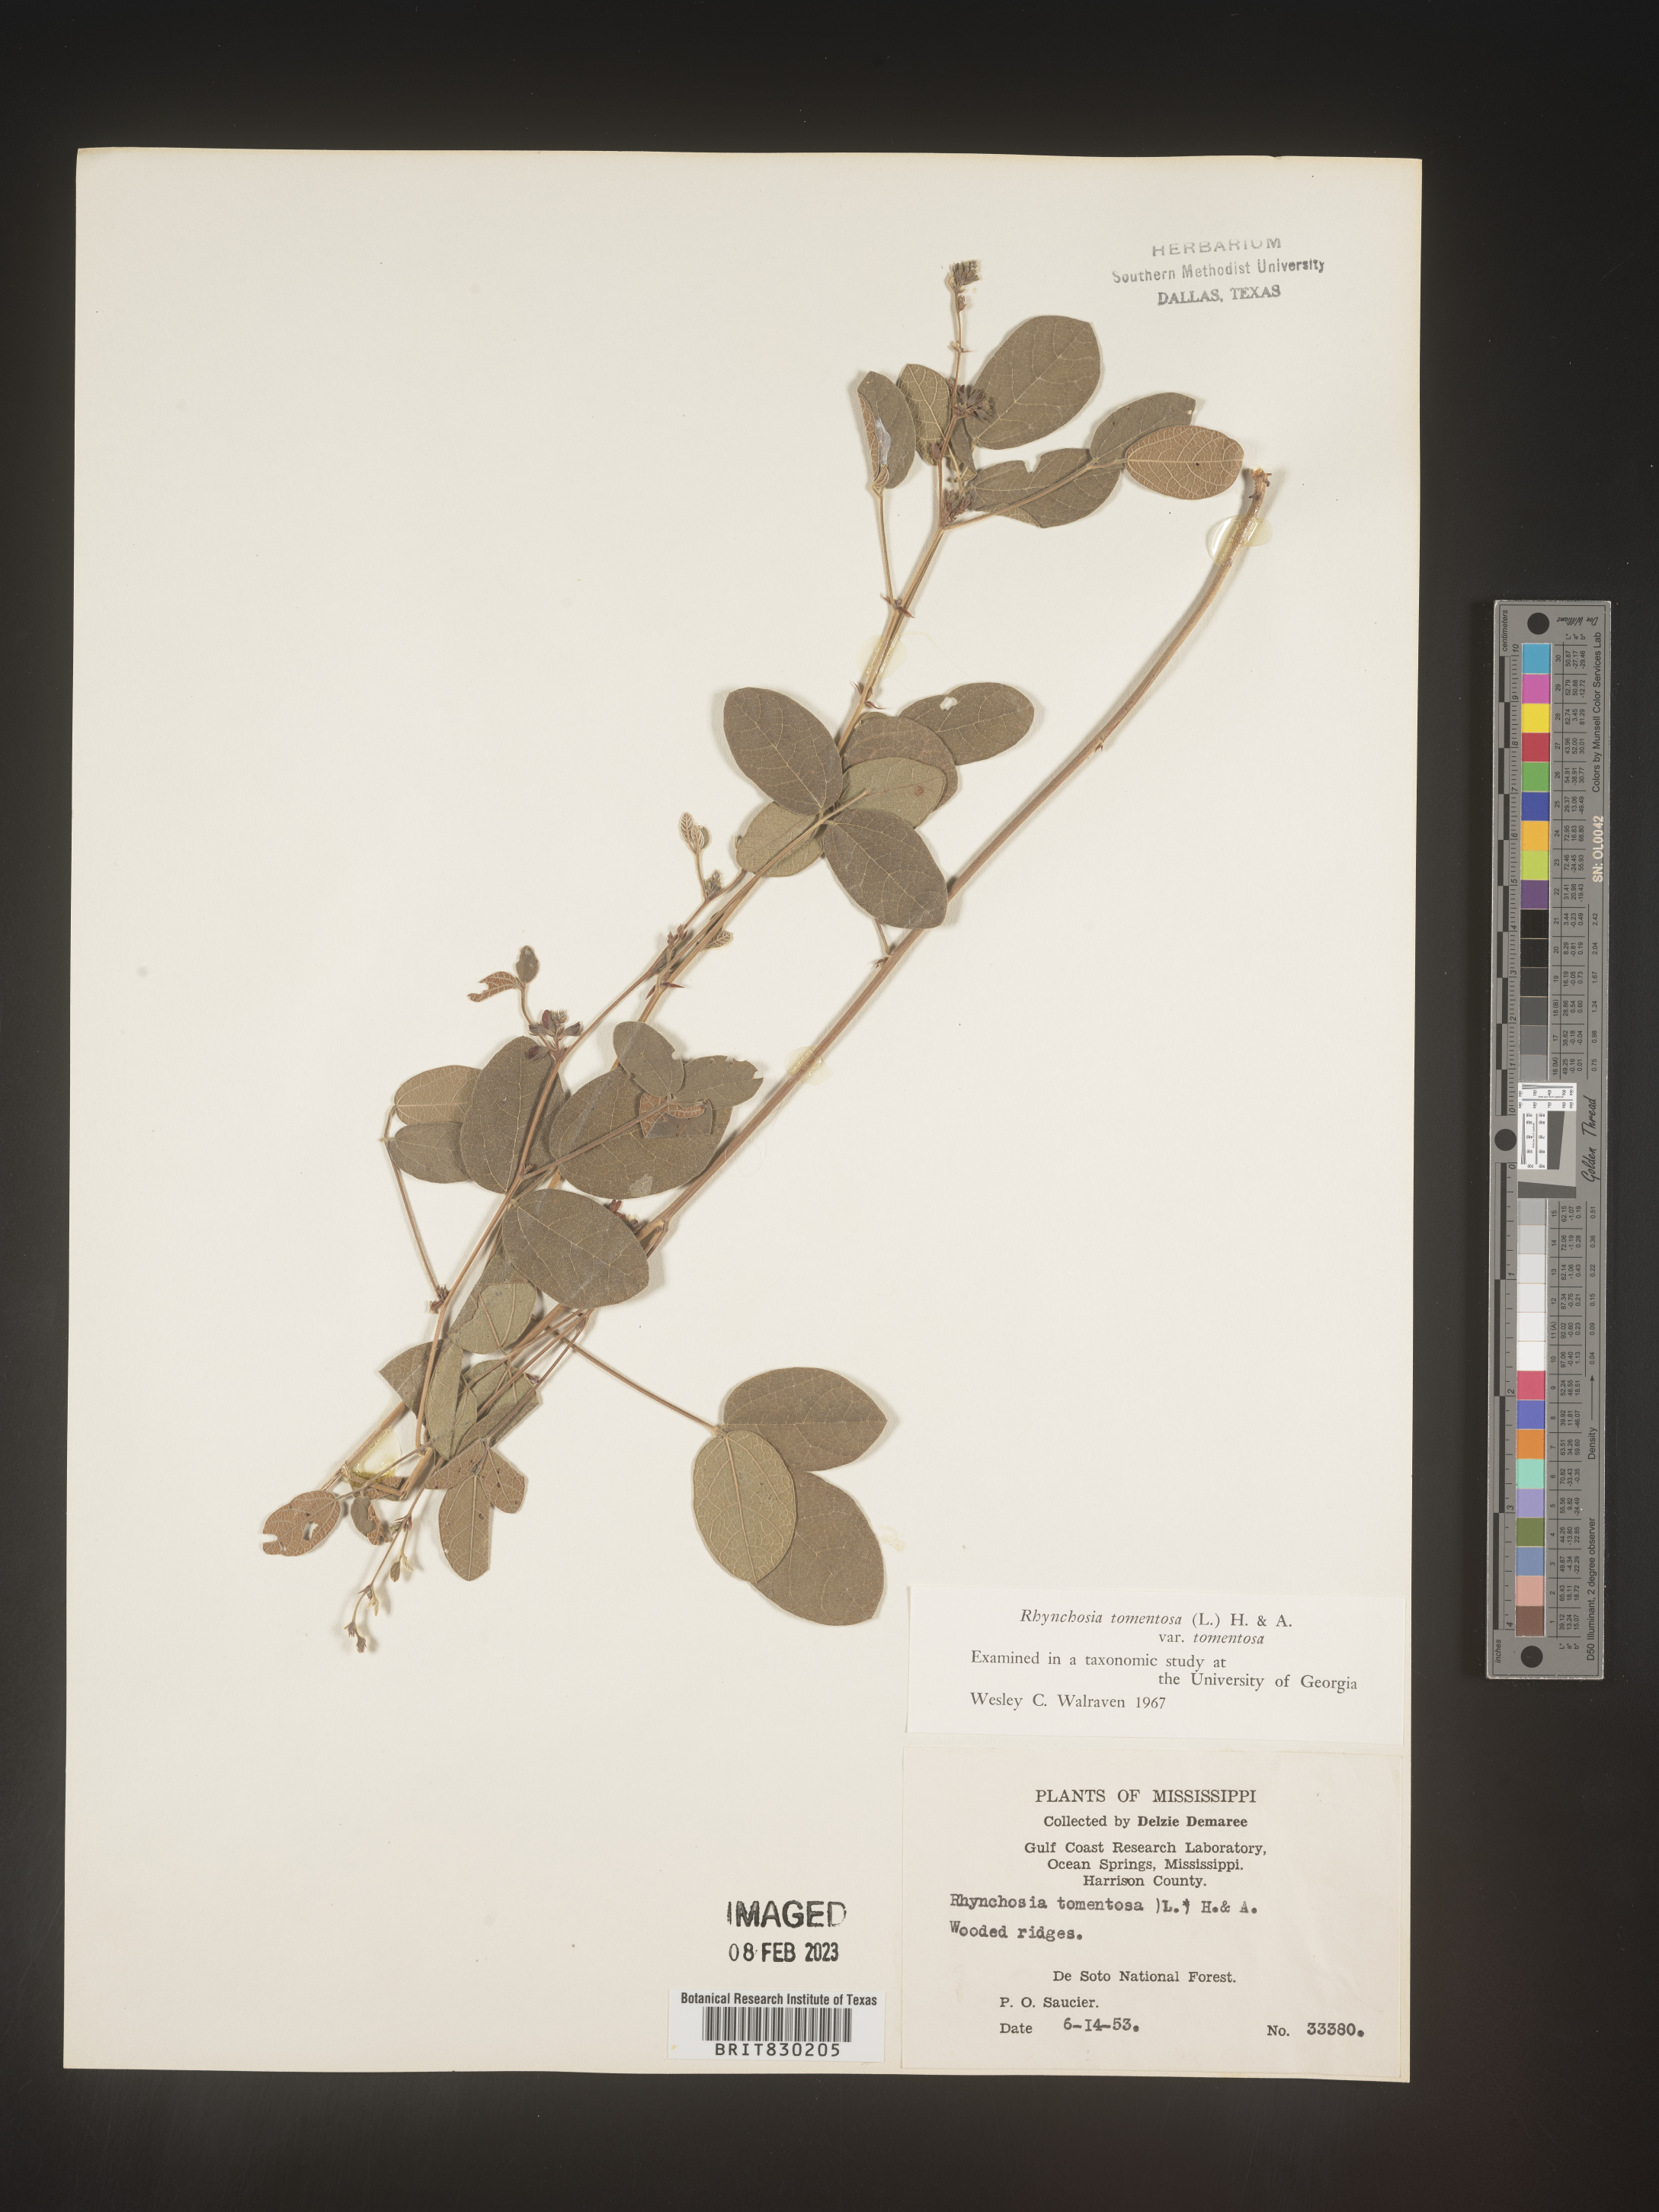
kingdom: Plantae
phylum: Tracheophyta
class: Magnoliopsida
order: Fabales
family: Fabaceae
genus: Rhynchosia
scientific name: Rhynchosia rothii
